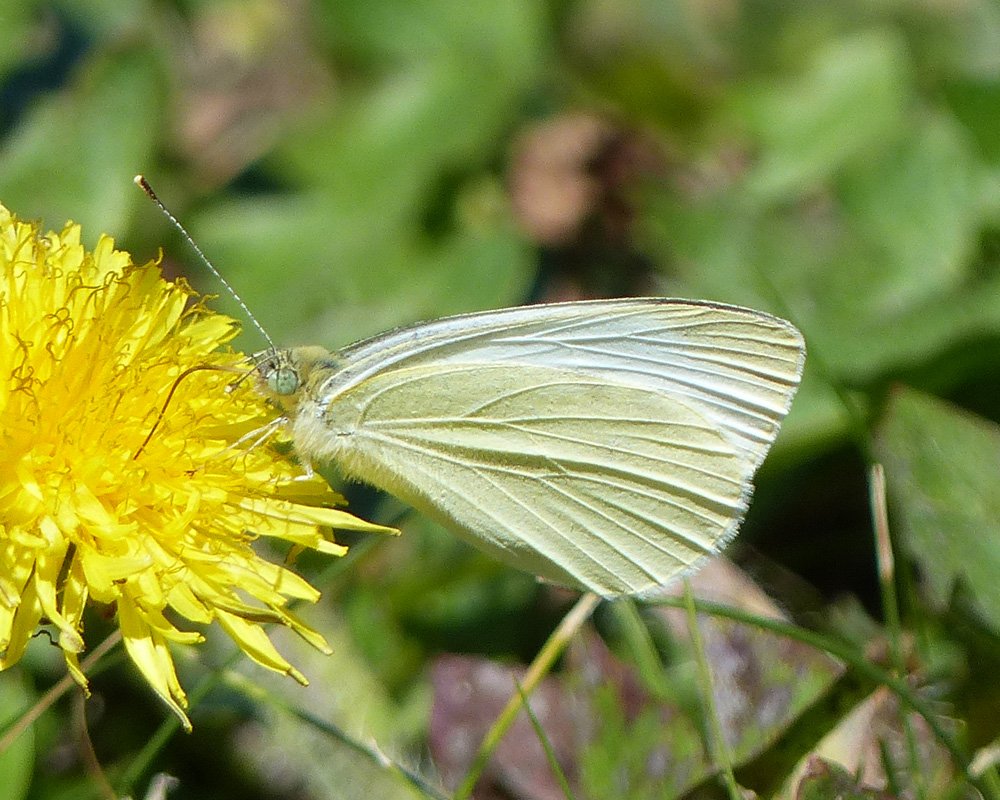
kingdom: Animalia
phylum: Arthropoda
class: Insecta
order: Lepidoptera
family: Pieridae
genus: Pieris
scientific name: Pieris rapae
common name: Cabbage White
